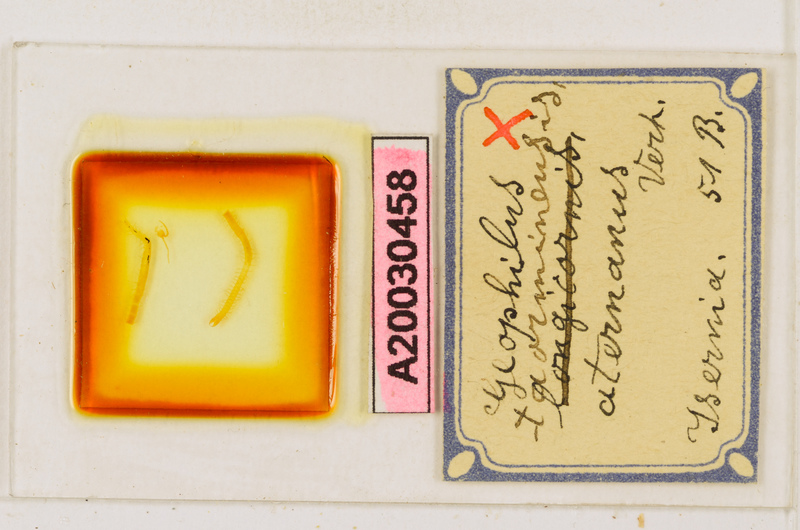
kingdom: Animalia
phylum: Arthropoda
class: Chilopoda
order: Geophilomorpha
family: Geophilidae
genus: Geophilus
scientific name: Geophilus osquidatum
